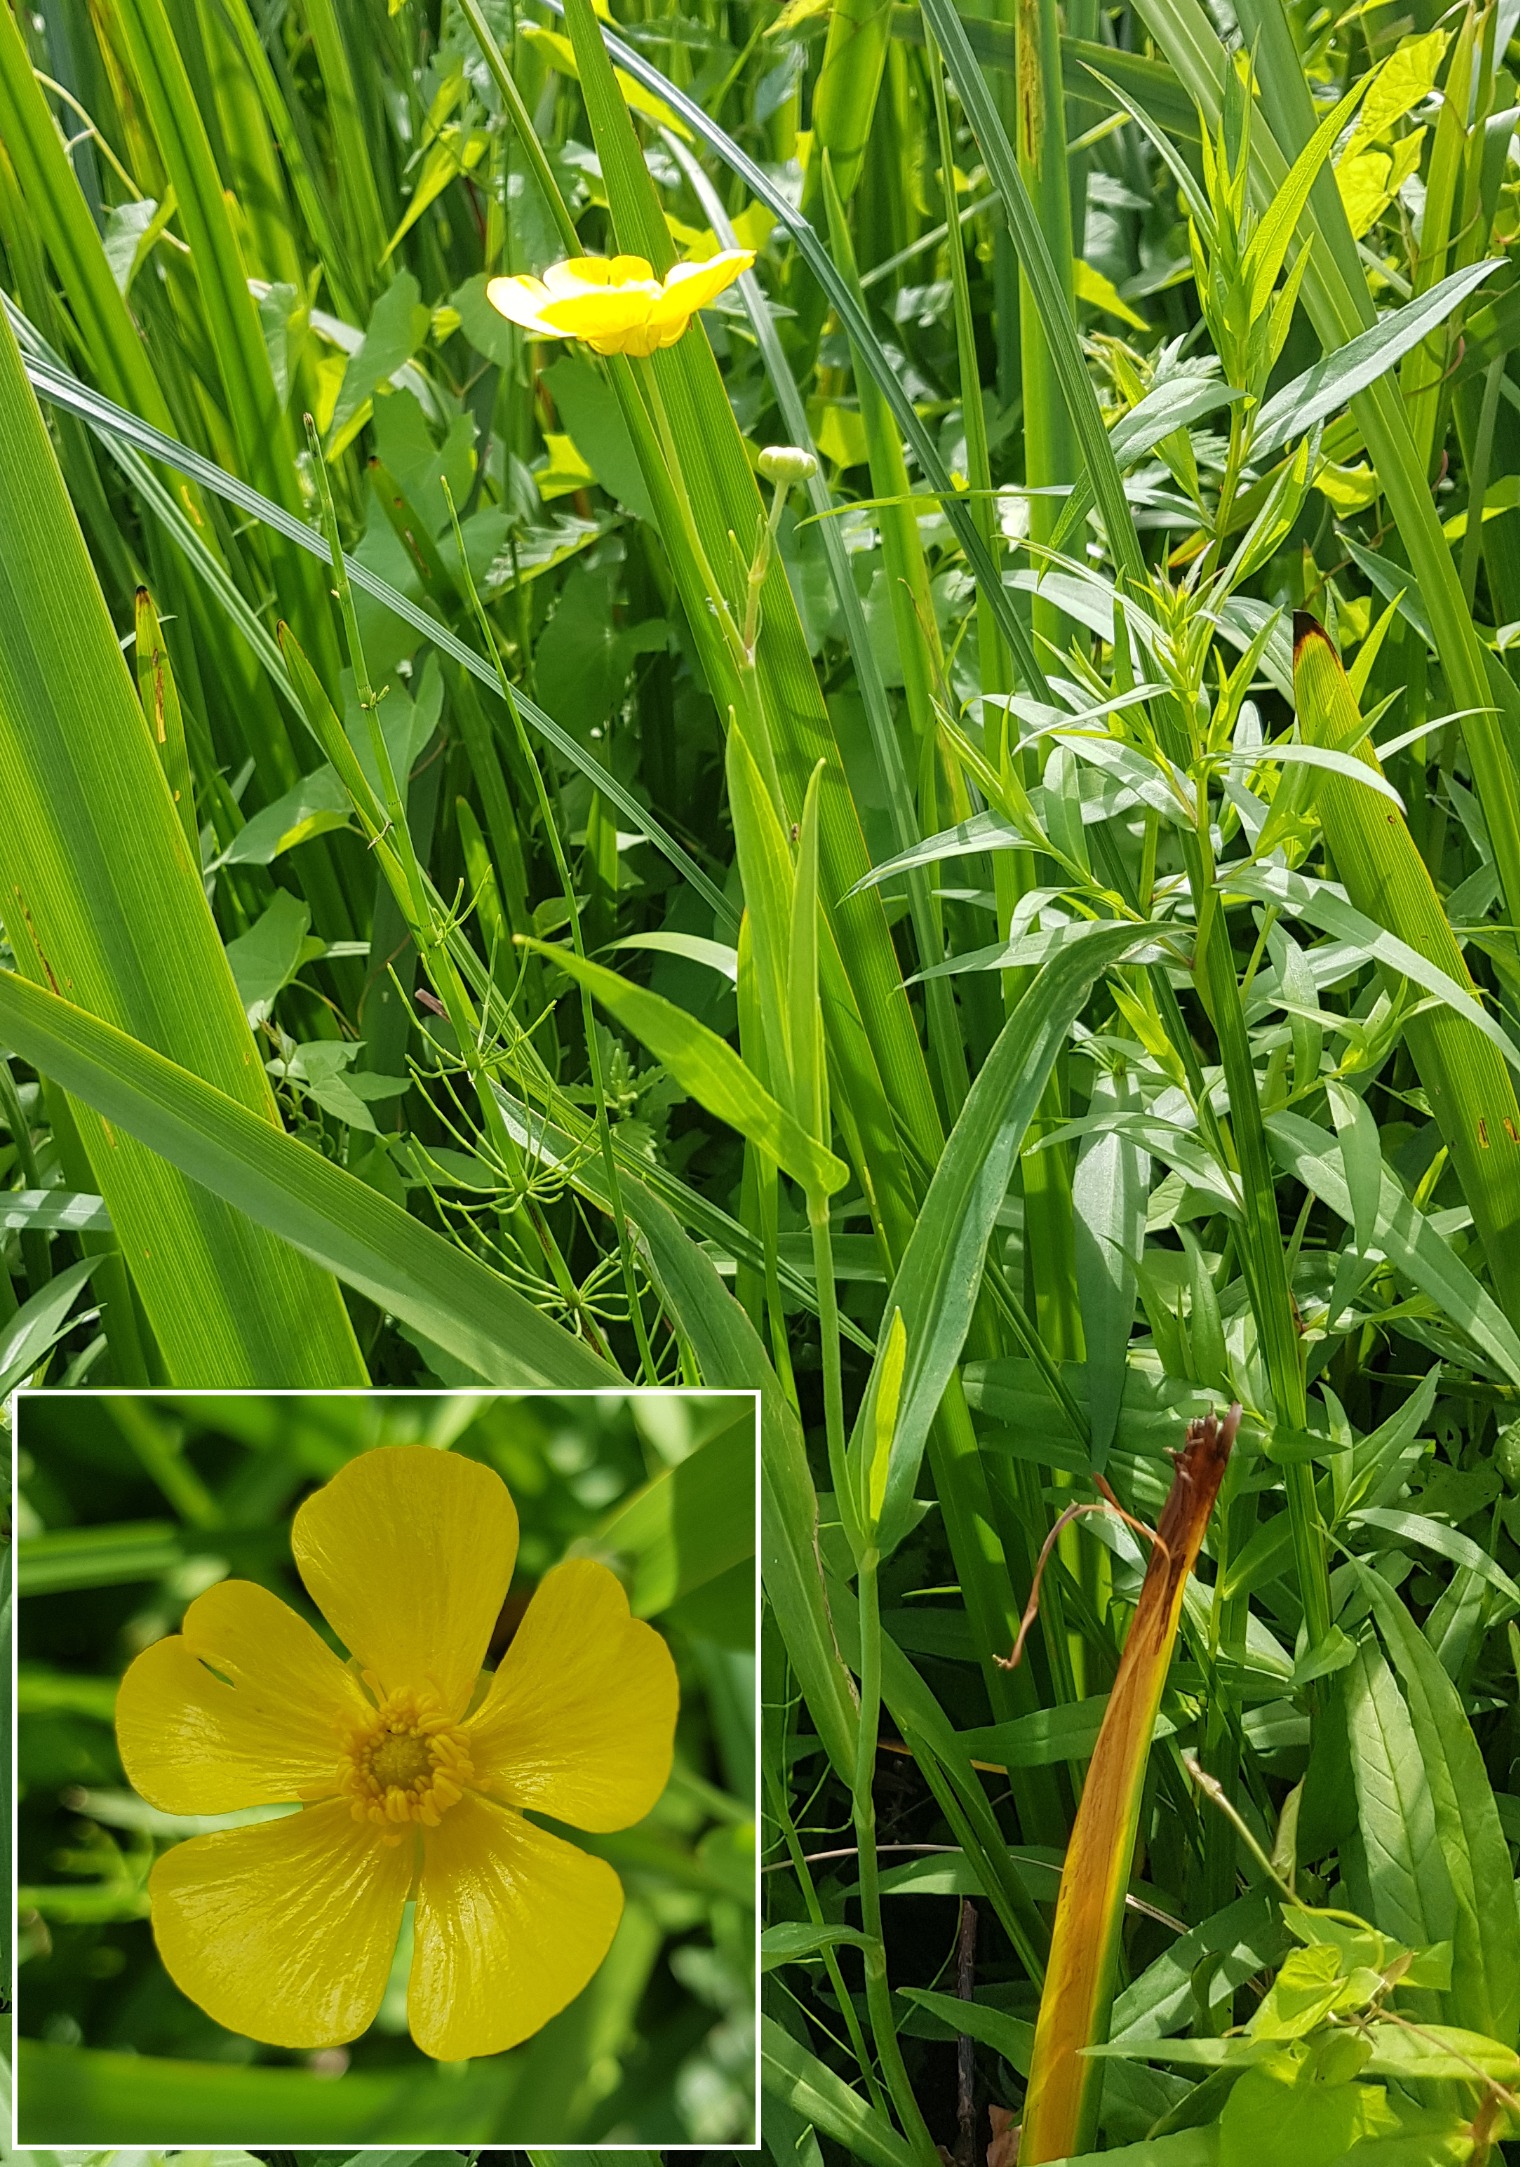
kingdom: Plantae
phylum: Tracheophyta
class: Magnoliopsida
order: Ranunculales
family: Ranunculaceae
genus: Ranunculus
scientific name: Ranunculus lingua
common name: Langbladet ranunkel
